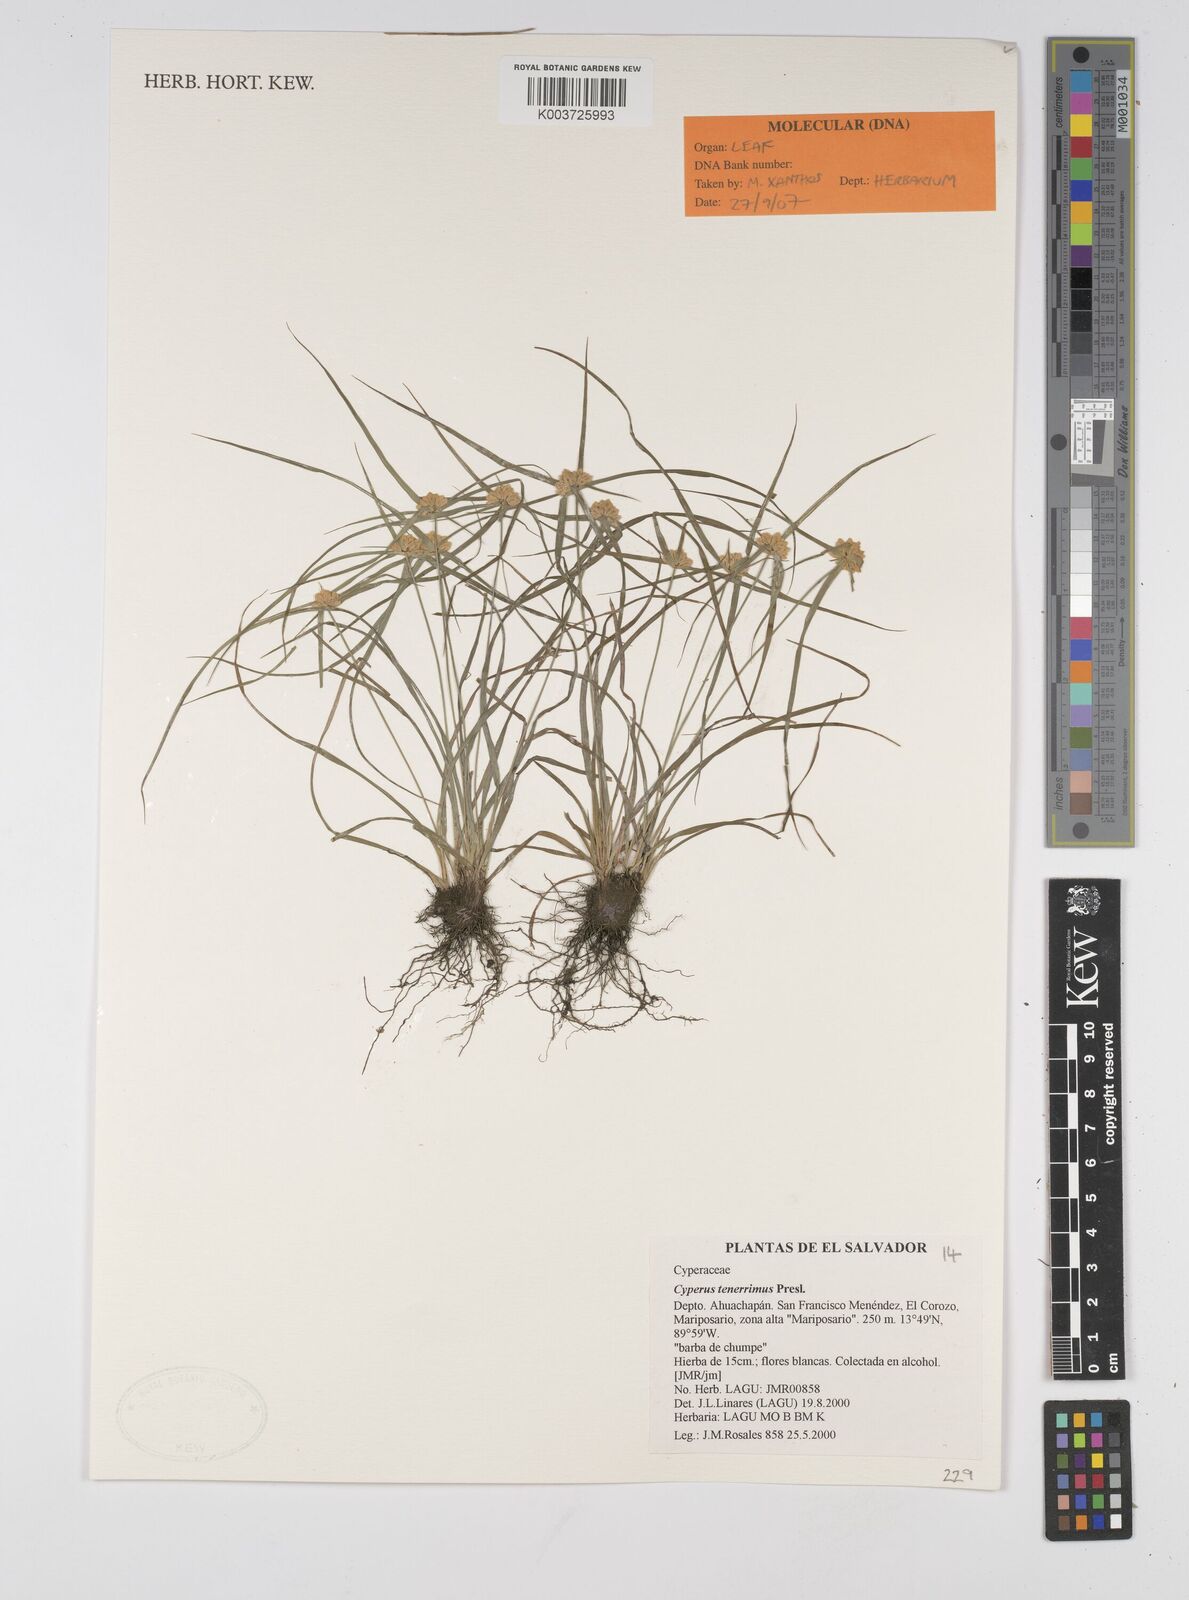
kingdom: Plantae
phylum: Tracheophyta
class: Liliopsida
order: Poales
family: Cyperaceae
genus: Cyperus
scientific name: Cyperus tenerrimus
